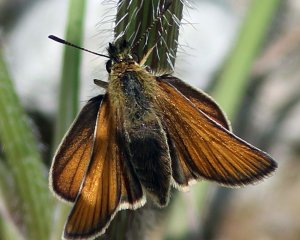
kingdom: Animalia
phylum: Arthropoda
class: Insecta
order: Lepidoptera
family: Hesperiidae
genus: Thymelicus
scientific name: Thymelicus lineola
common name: European Skipper
